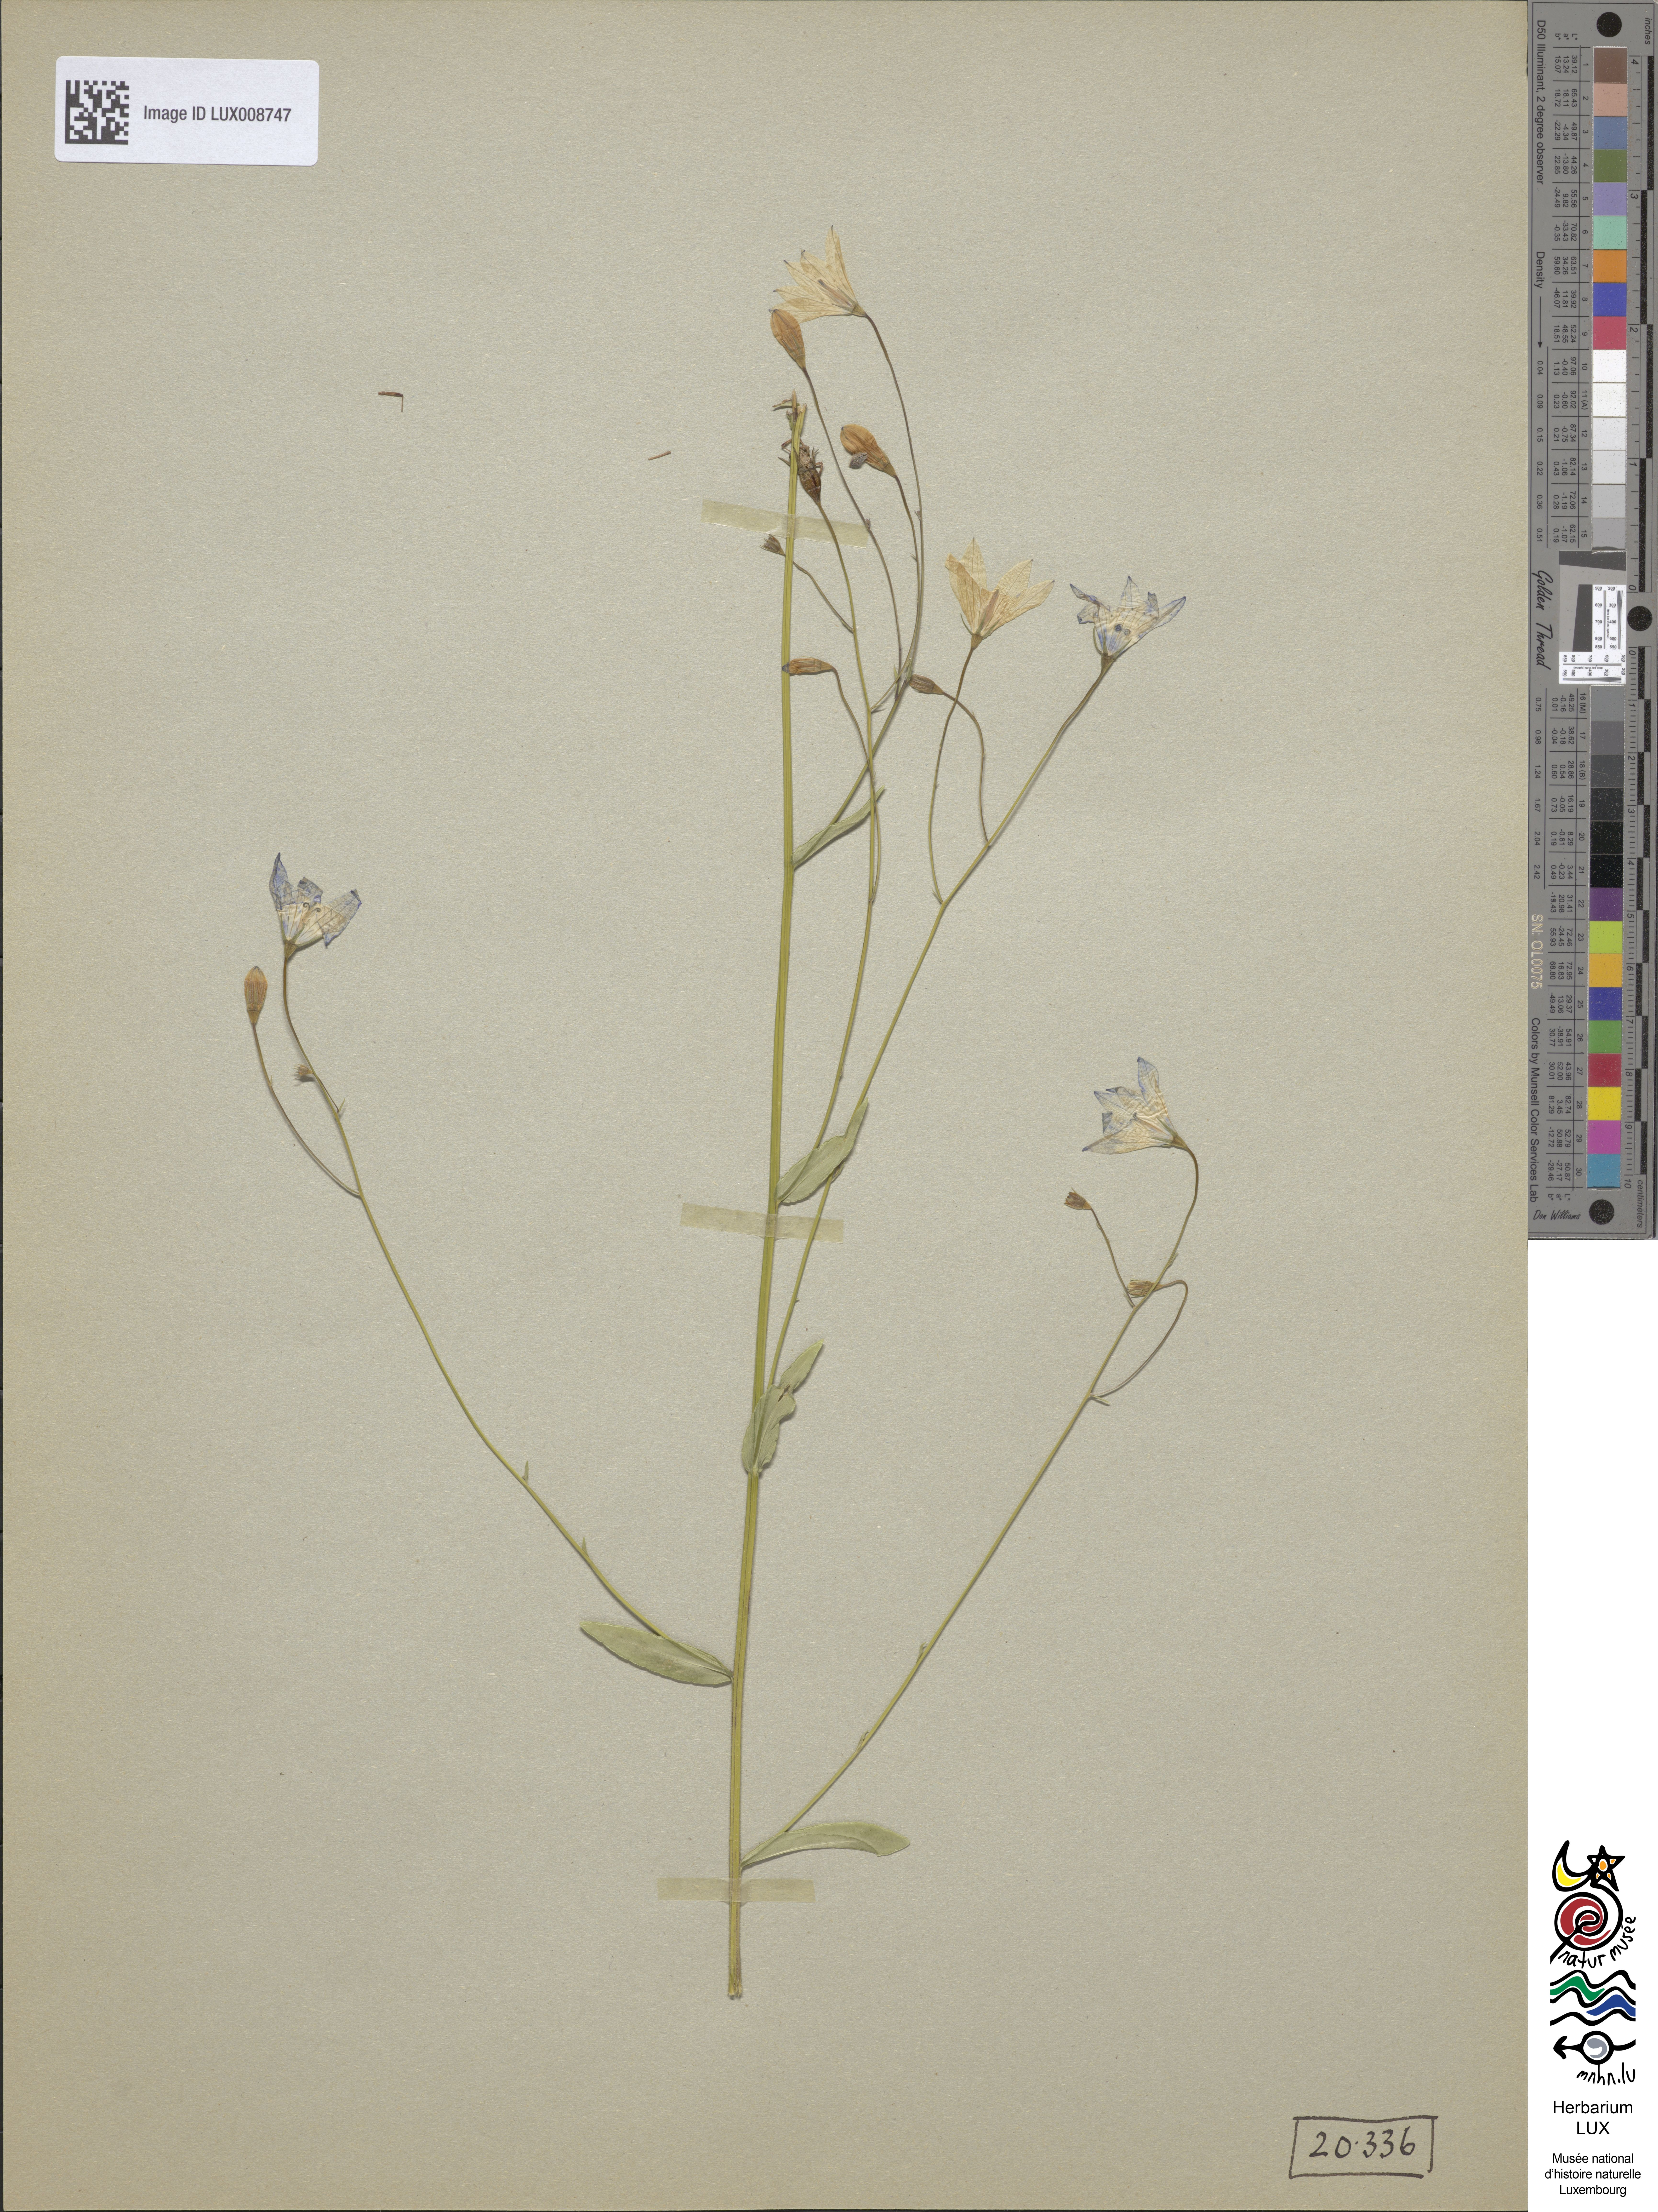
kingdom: Plantae
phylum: Tracheophyta
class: Magnoliopsida
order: Asterales
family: Campanulaceae
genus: Campanula
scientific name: Campanula patula
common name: Spreading bellflower
